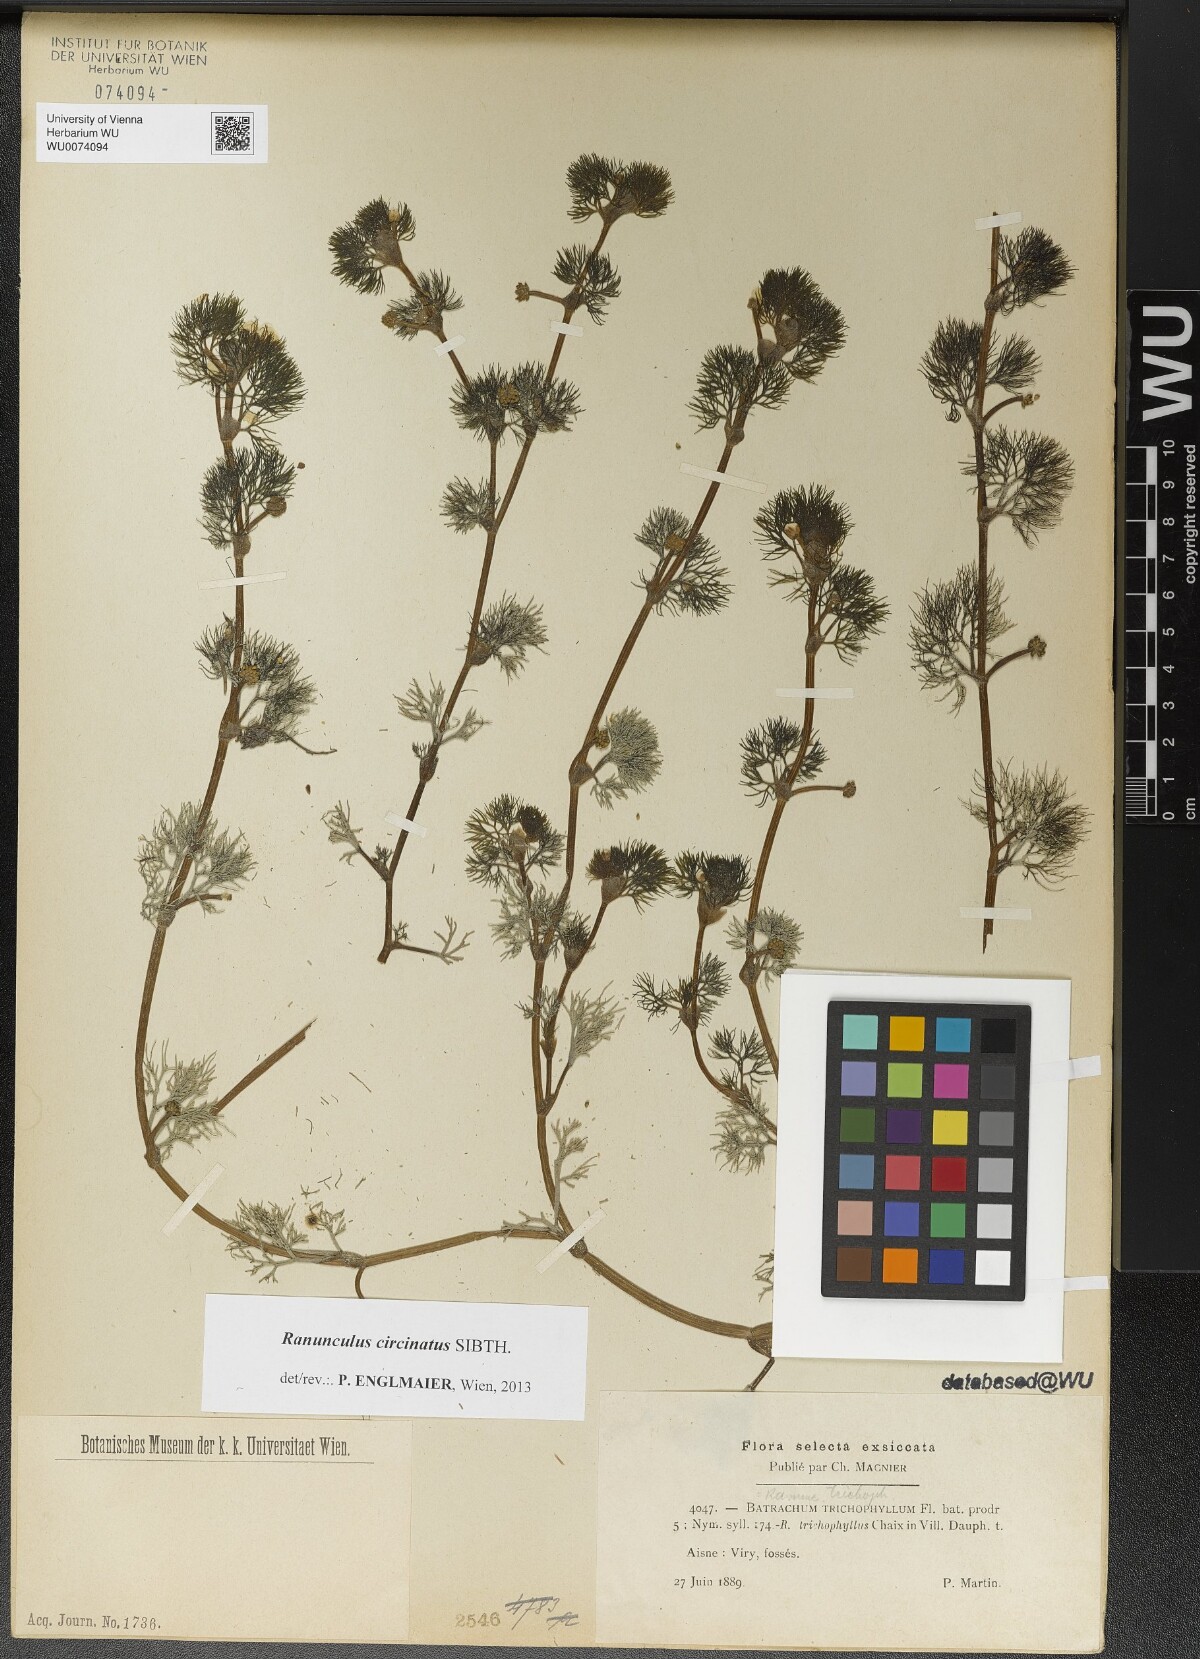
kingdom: Plantae
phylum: Tracheophyta
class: Magnoliopsida
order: Ranunculales
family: Ranunculaceae
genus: Ranunculus
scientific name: Ranunculus circinatus
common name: Fan-leaved water-crowfoot
